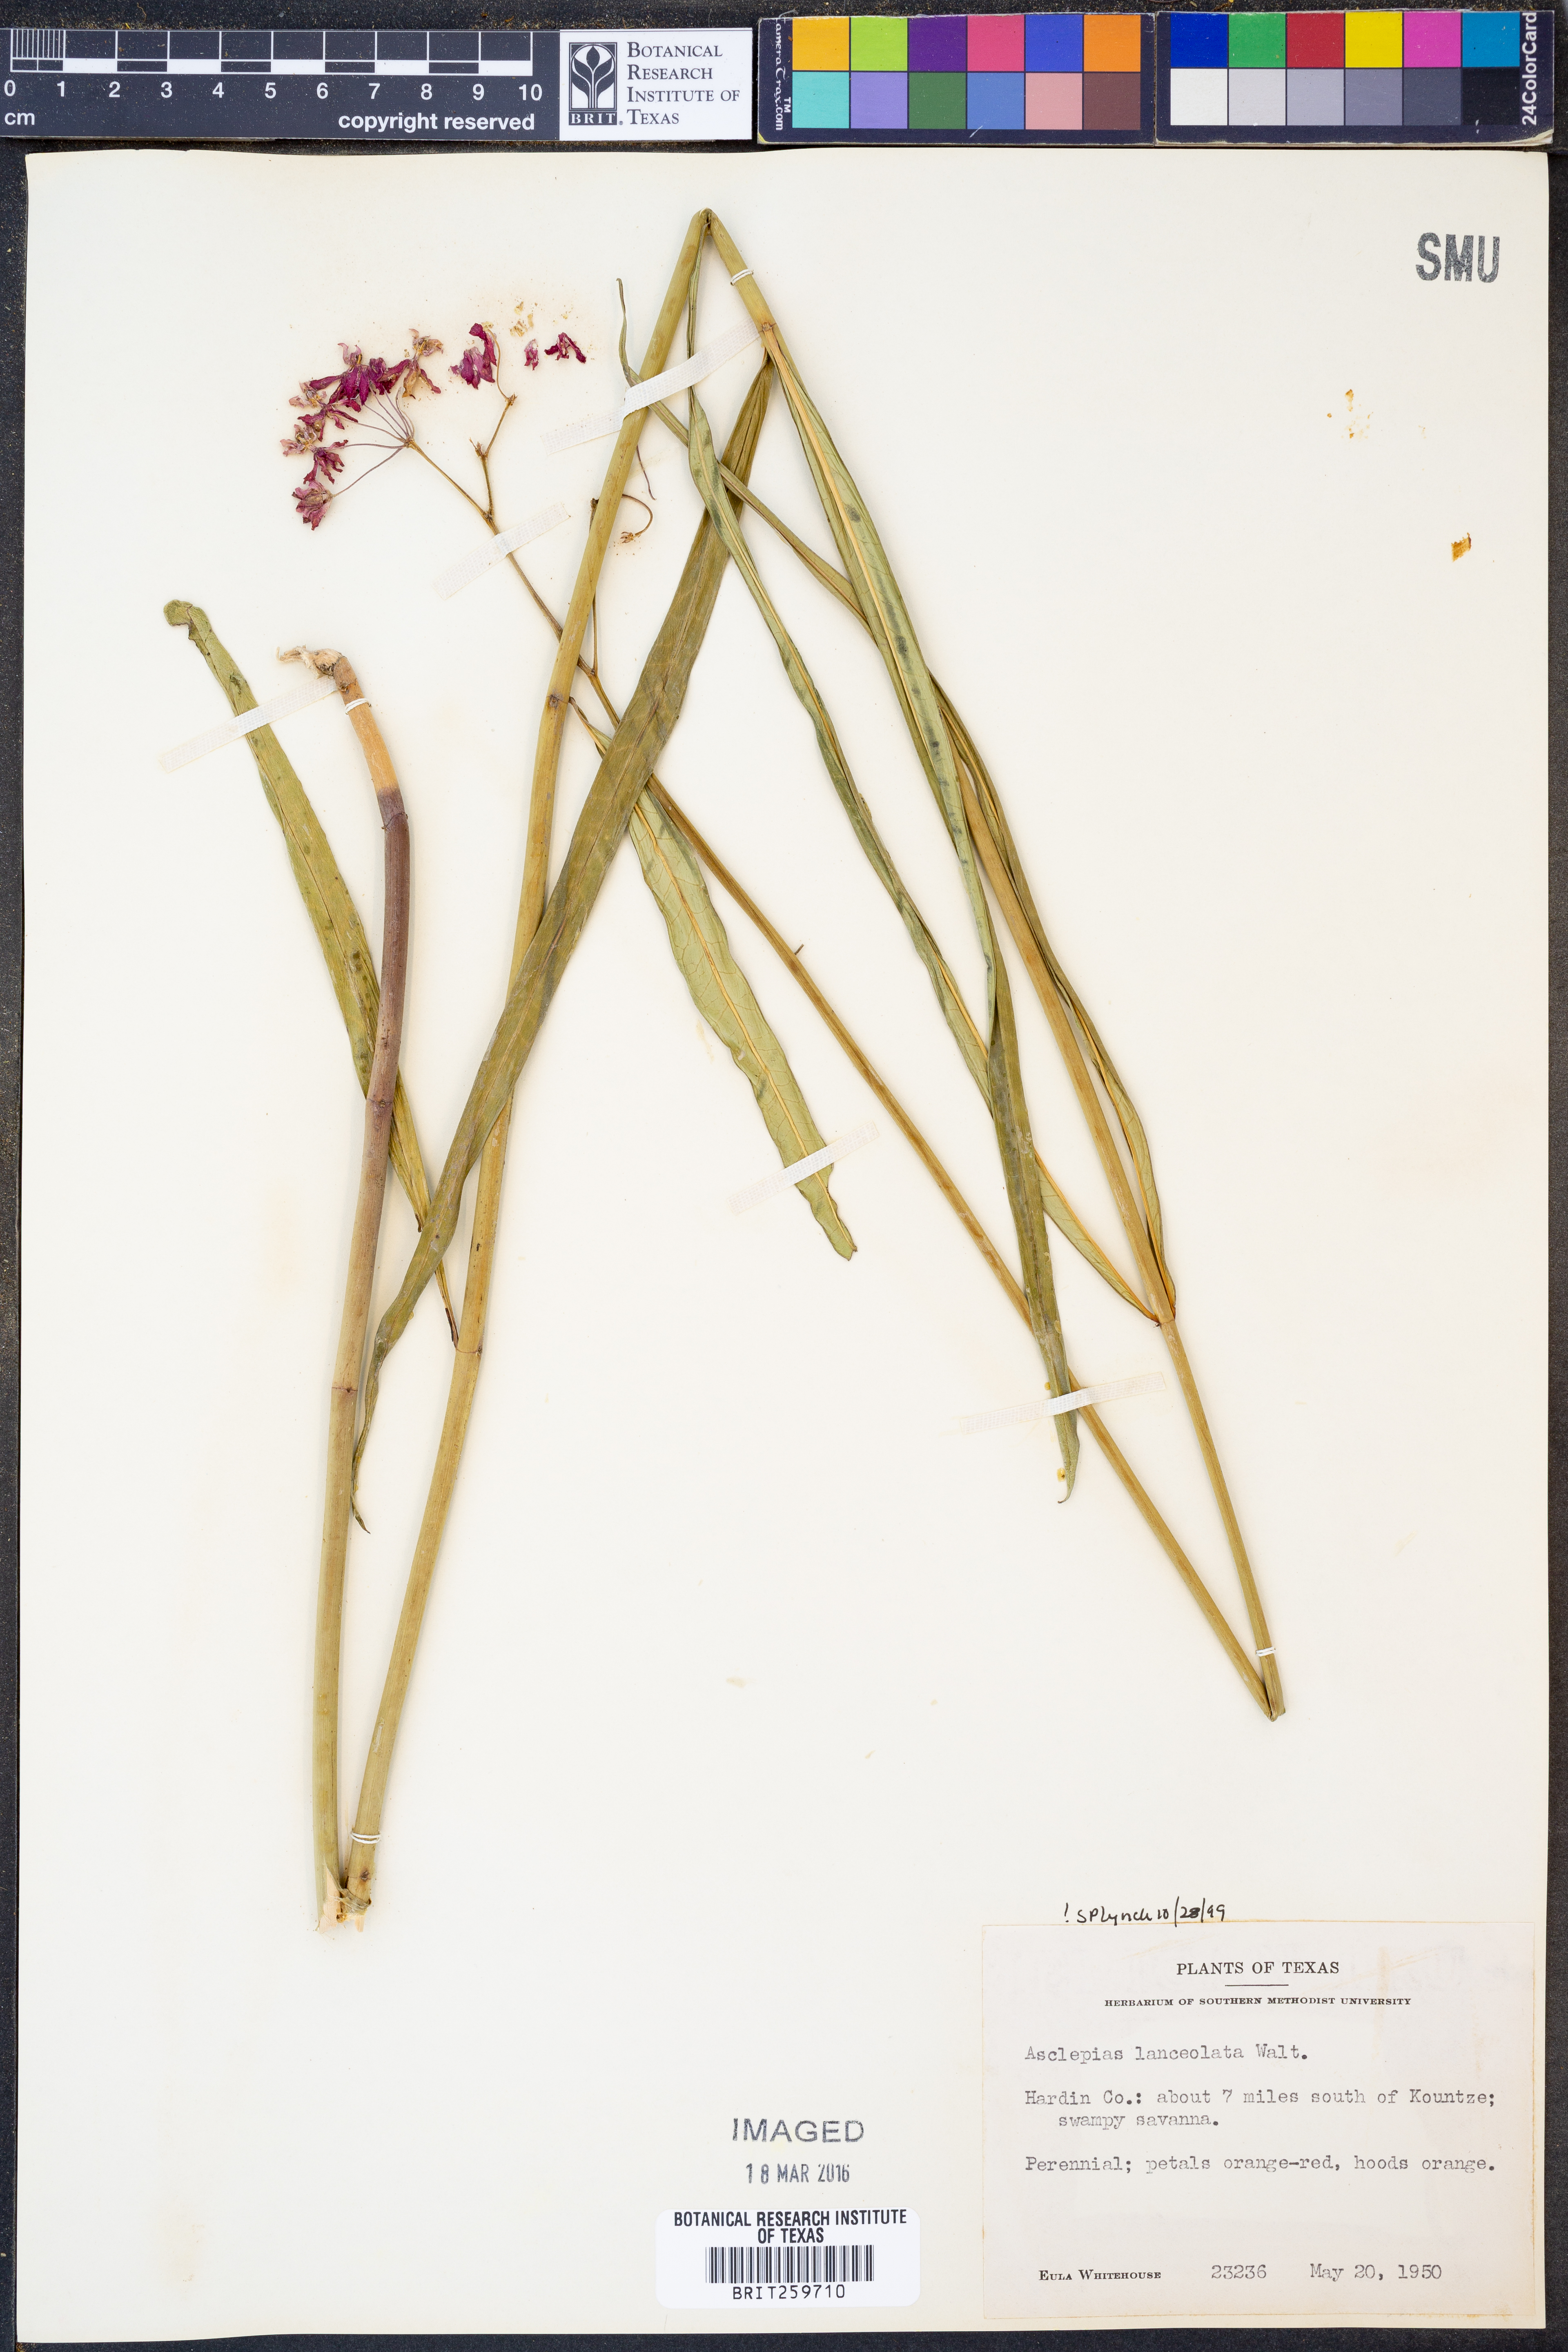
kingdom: Plantae
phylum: Tracheophyta
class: Magnoliopsida
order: Gentianales
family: Apocynaceae
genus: Asclepias
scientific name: Asclepias lanceolata
